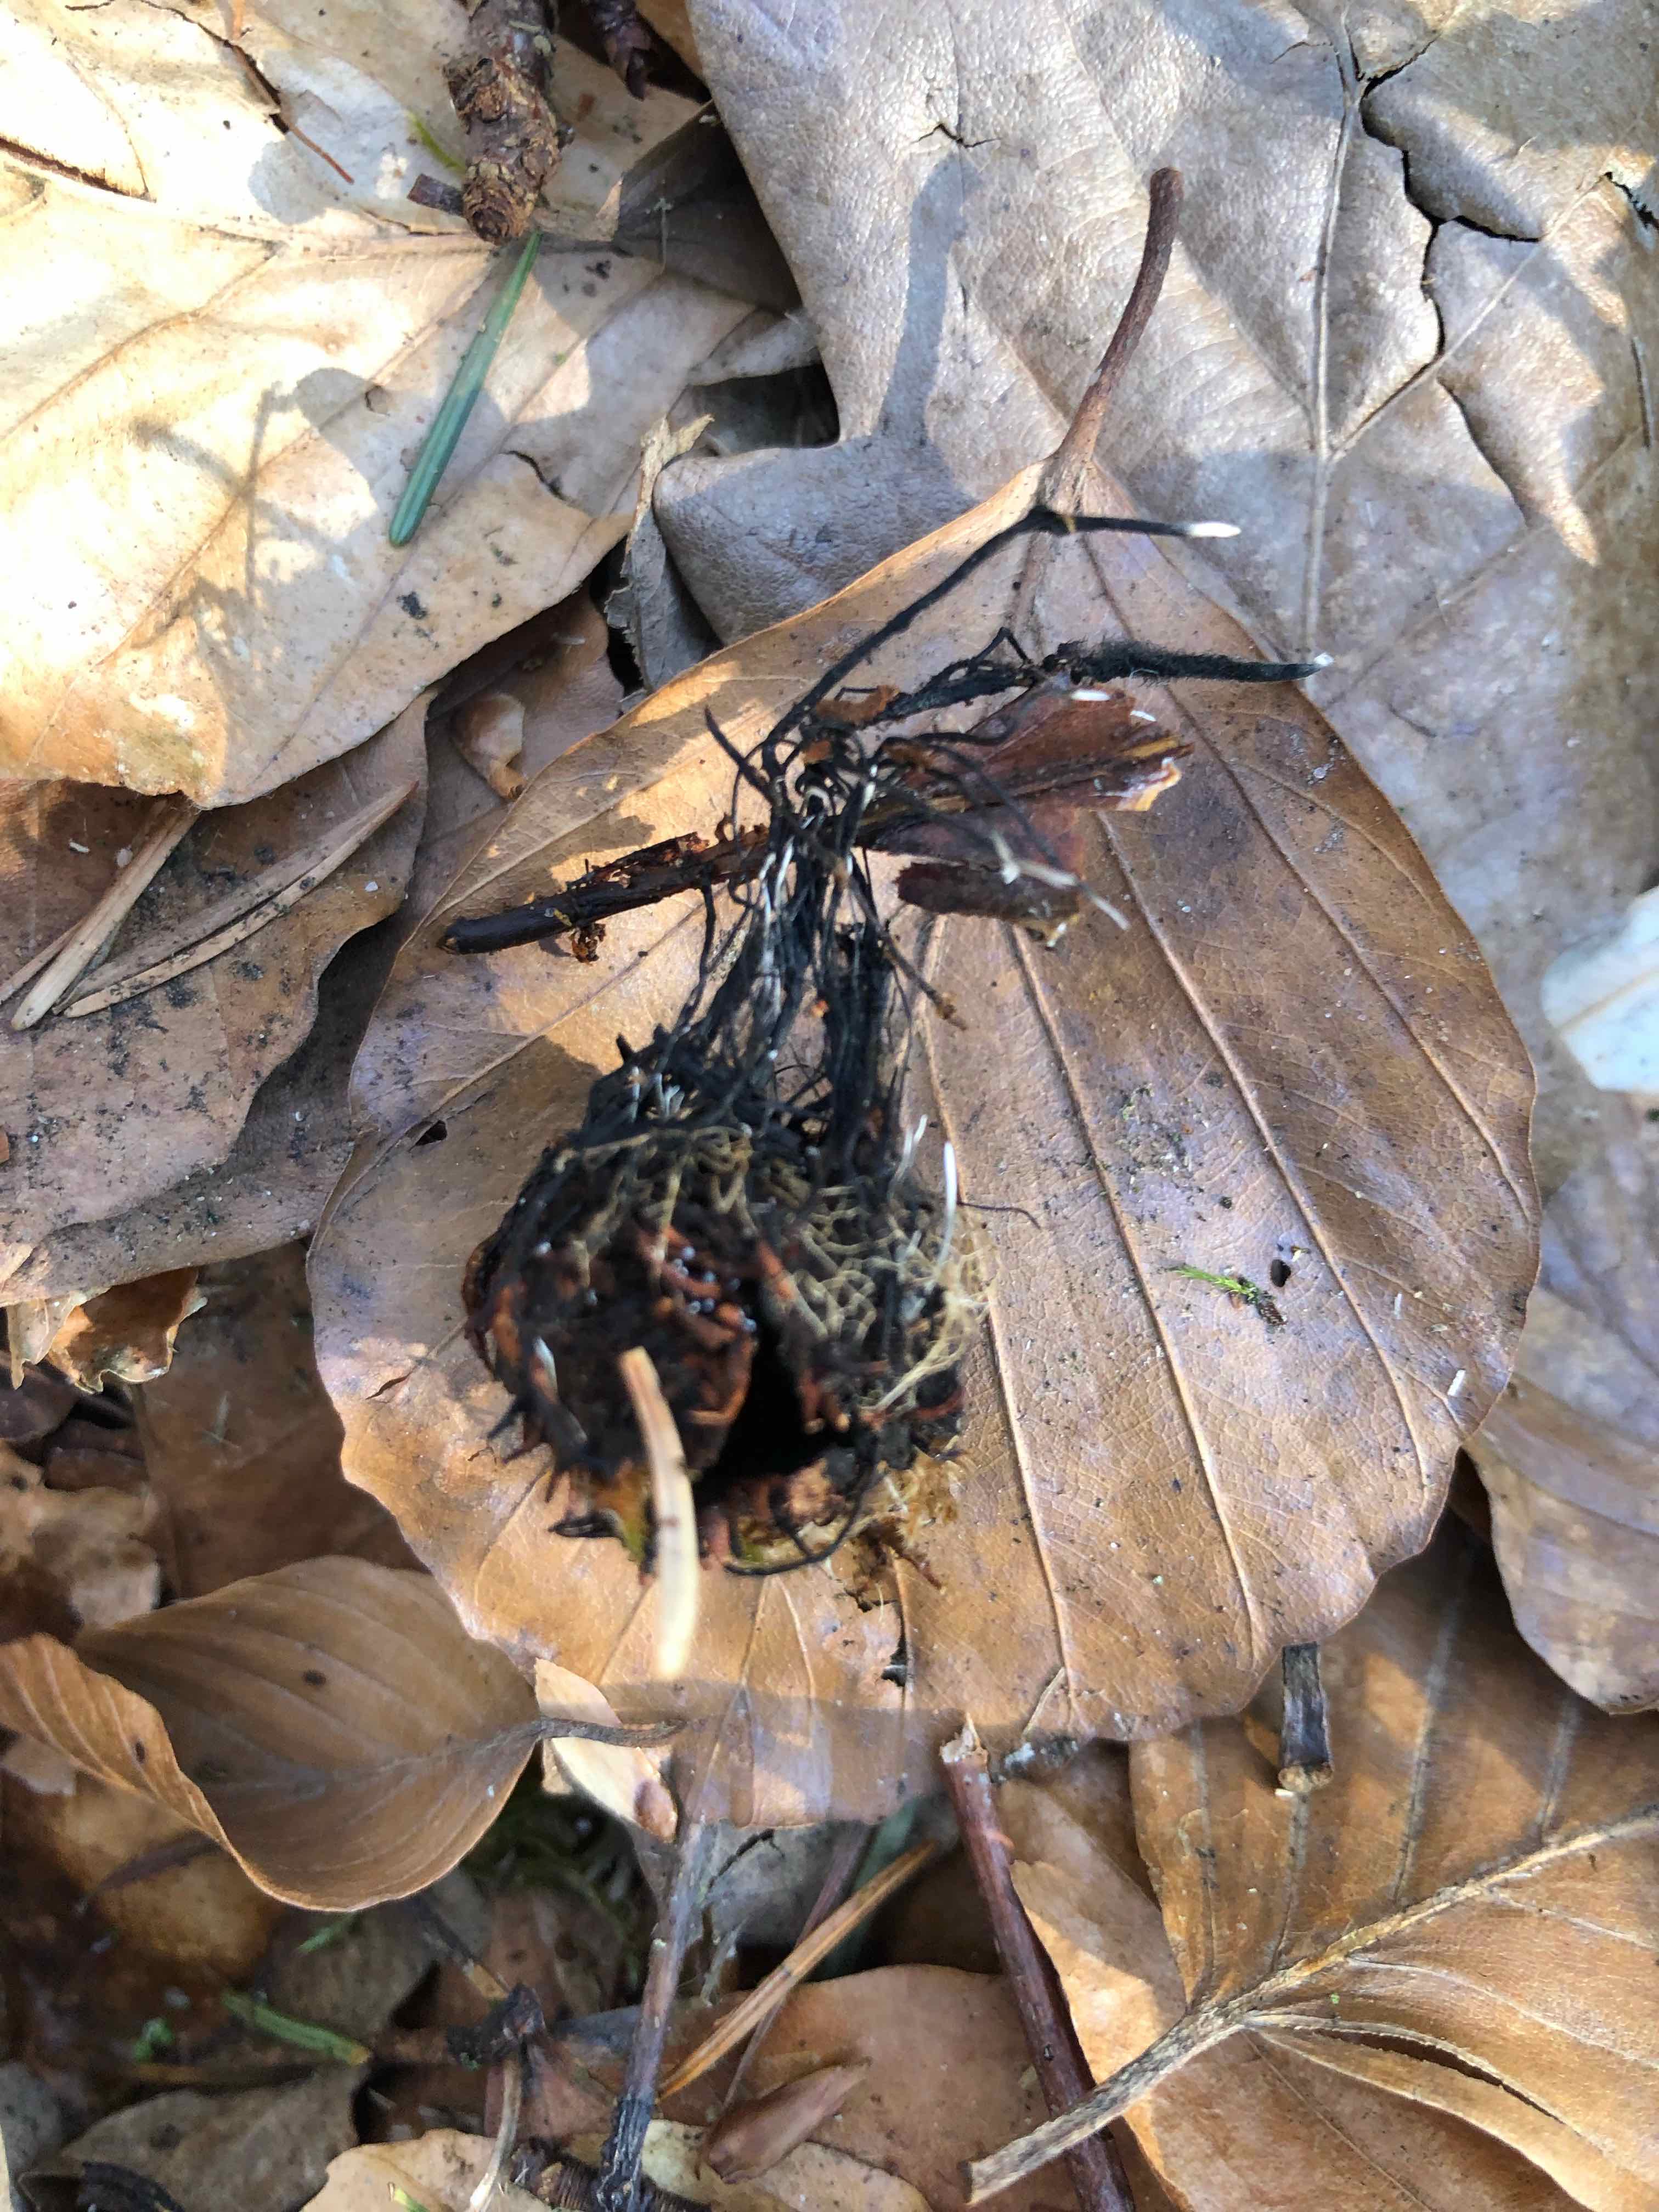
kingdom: Fungi
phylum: Ascomycota
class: Sordariomycetes
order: Xylariales
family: Xylariaceae
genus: Xylaria
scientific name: Xylaria carpophila
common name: bogskål-stødsvamp
